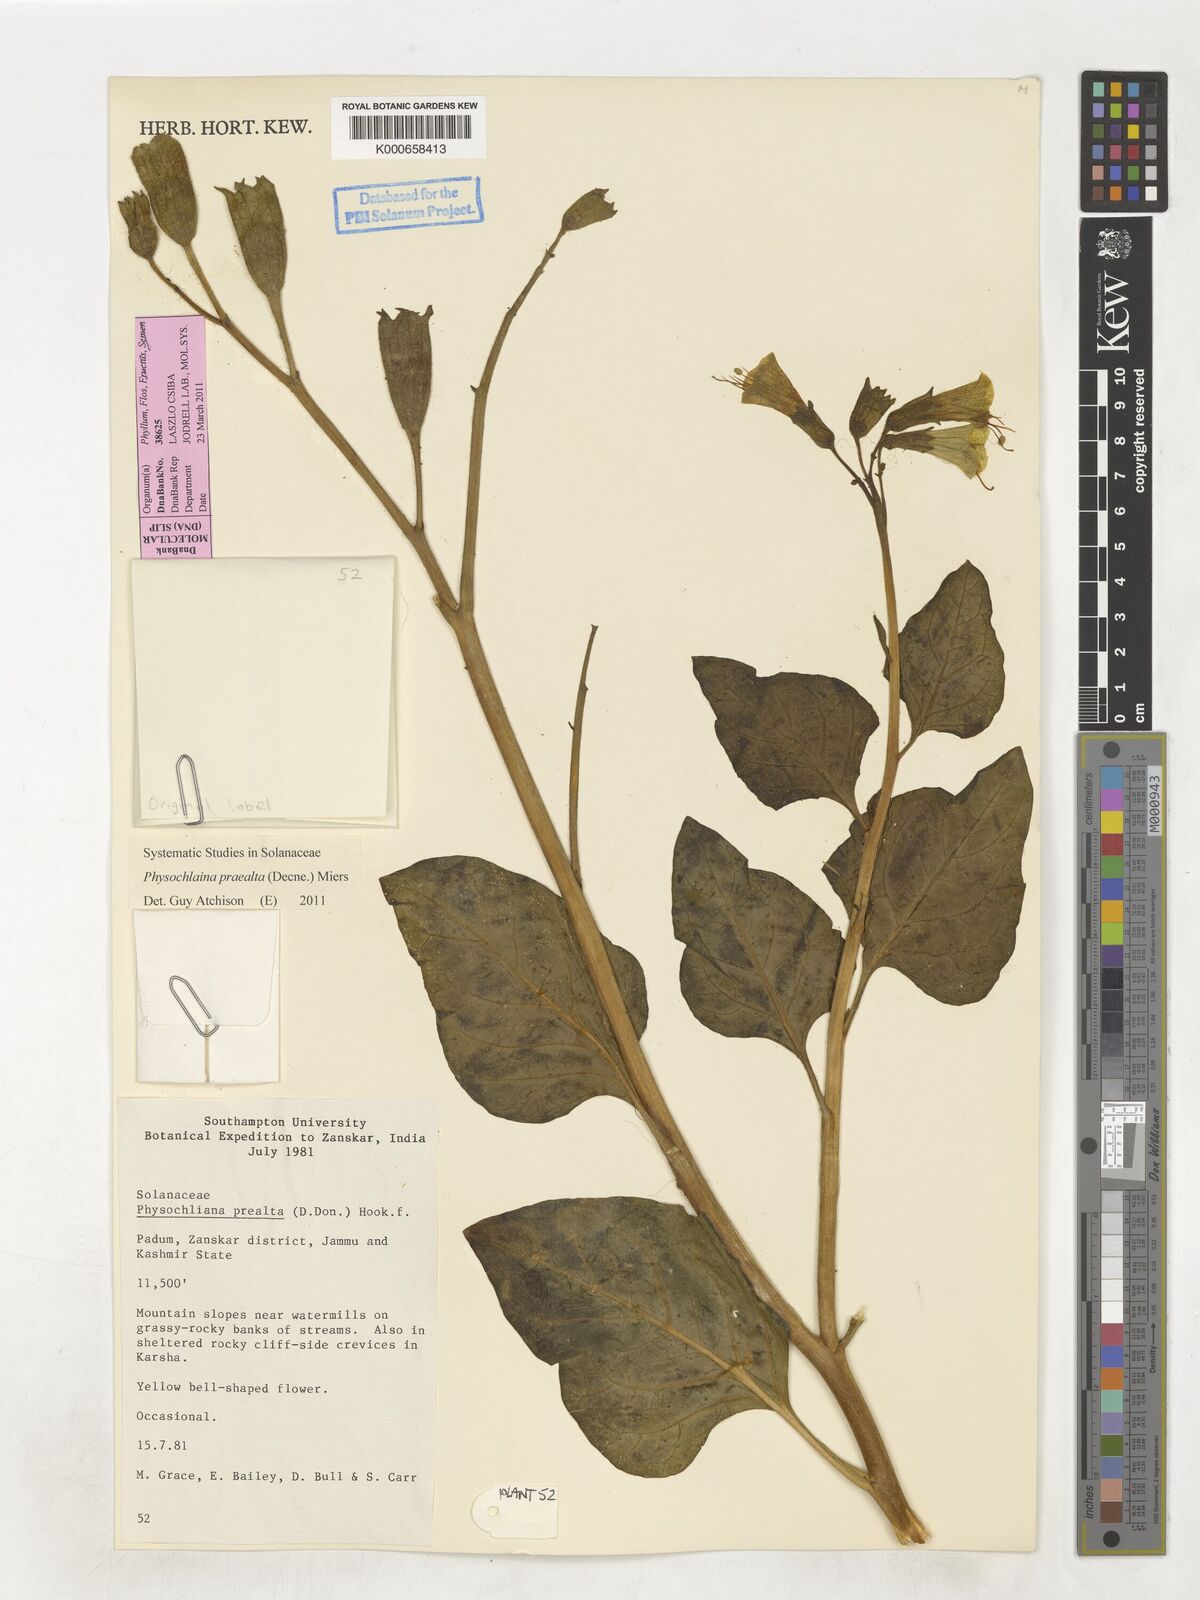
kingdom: Plantae
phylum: Tracheophyta
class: Magnoliopsida
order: Solanales
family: Solanaceae
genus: Physochlaina
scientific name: Physochlaina praealta
